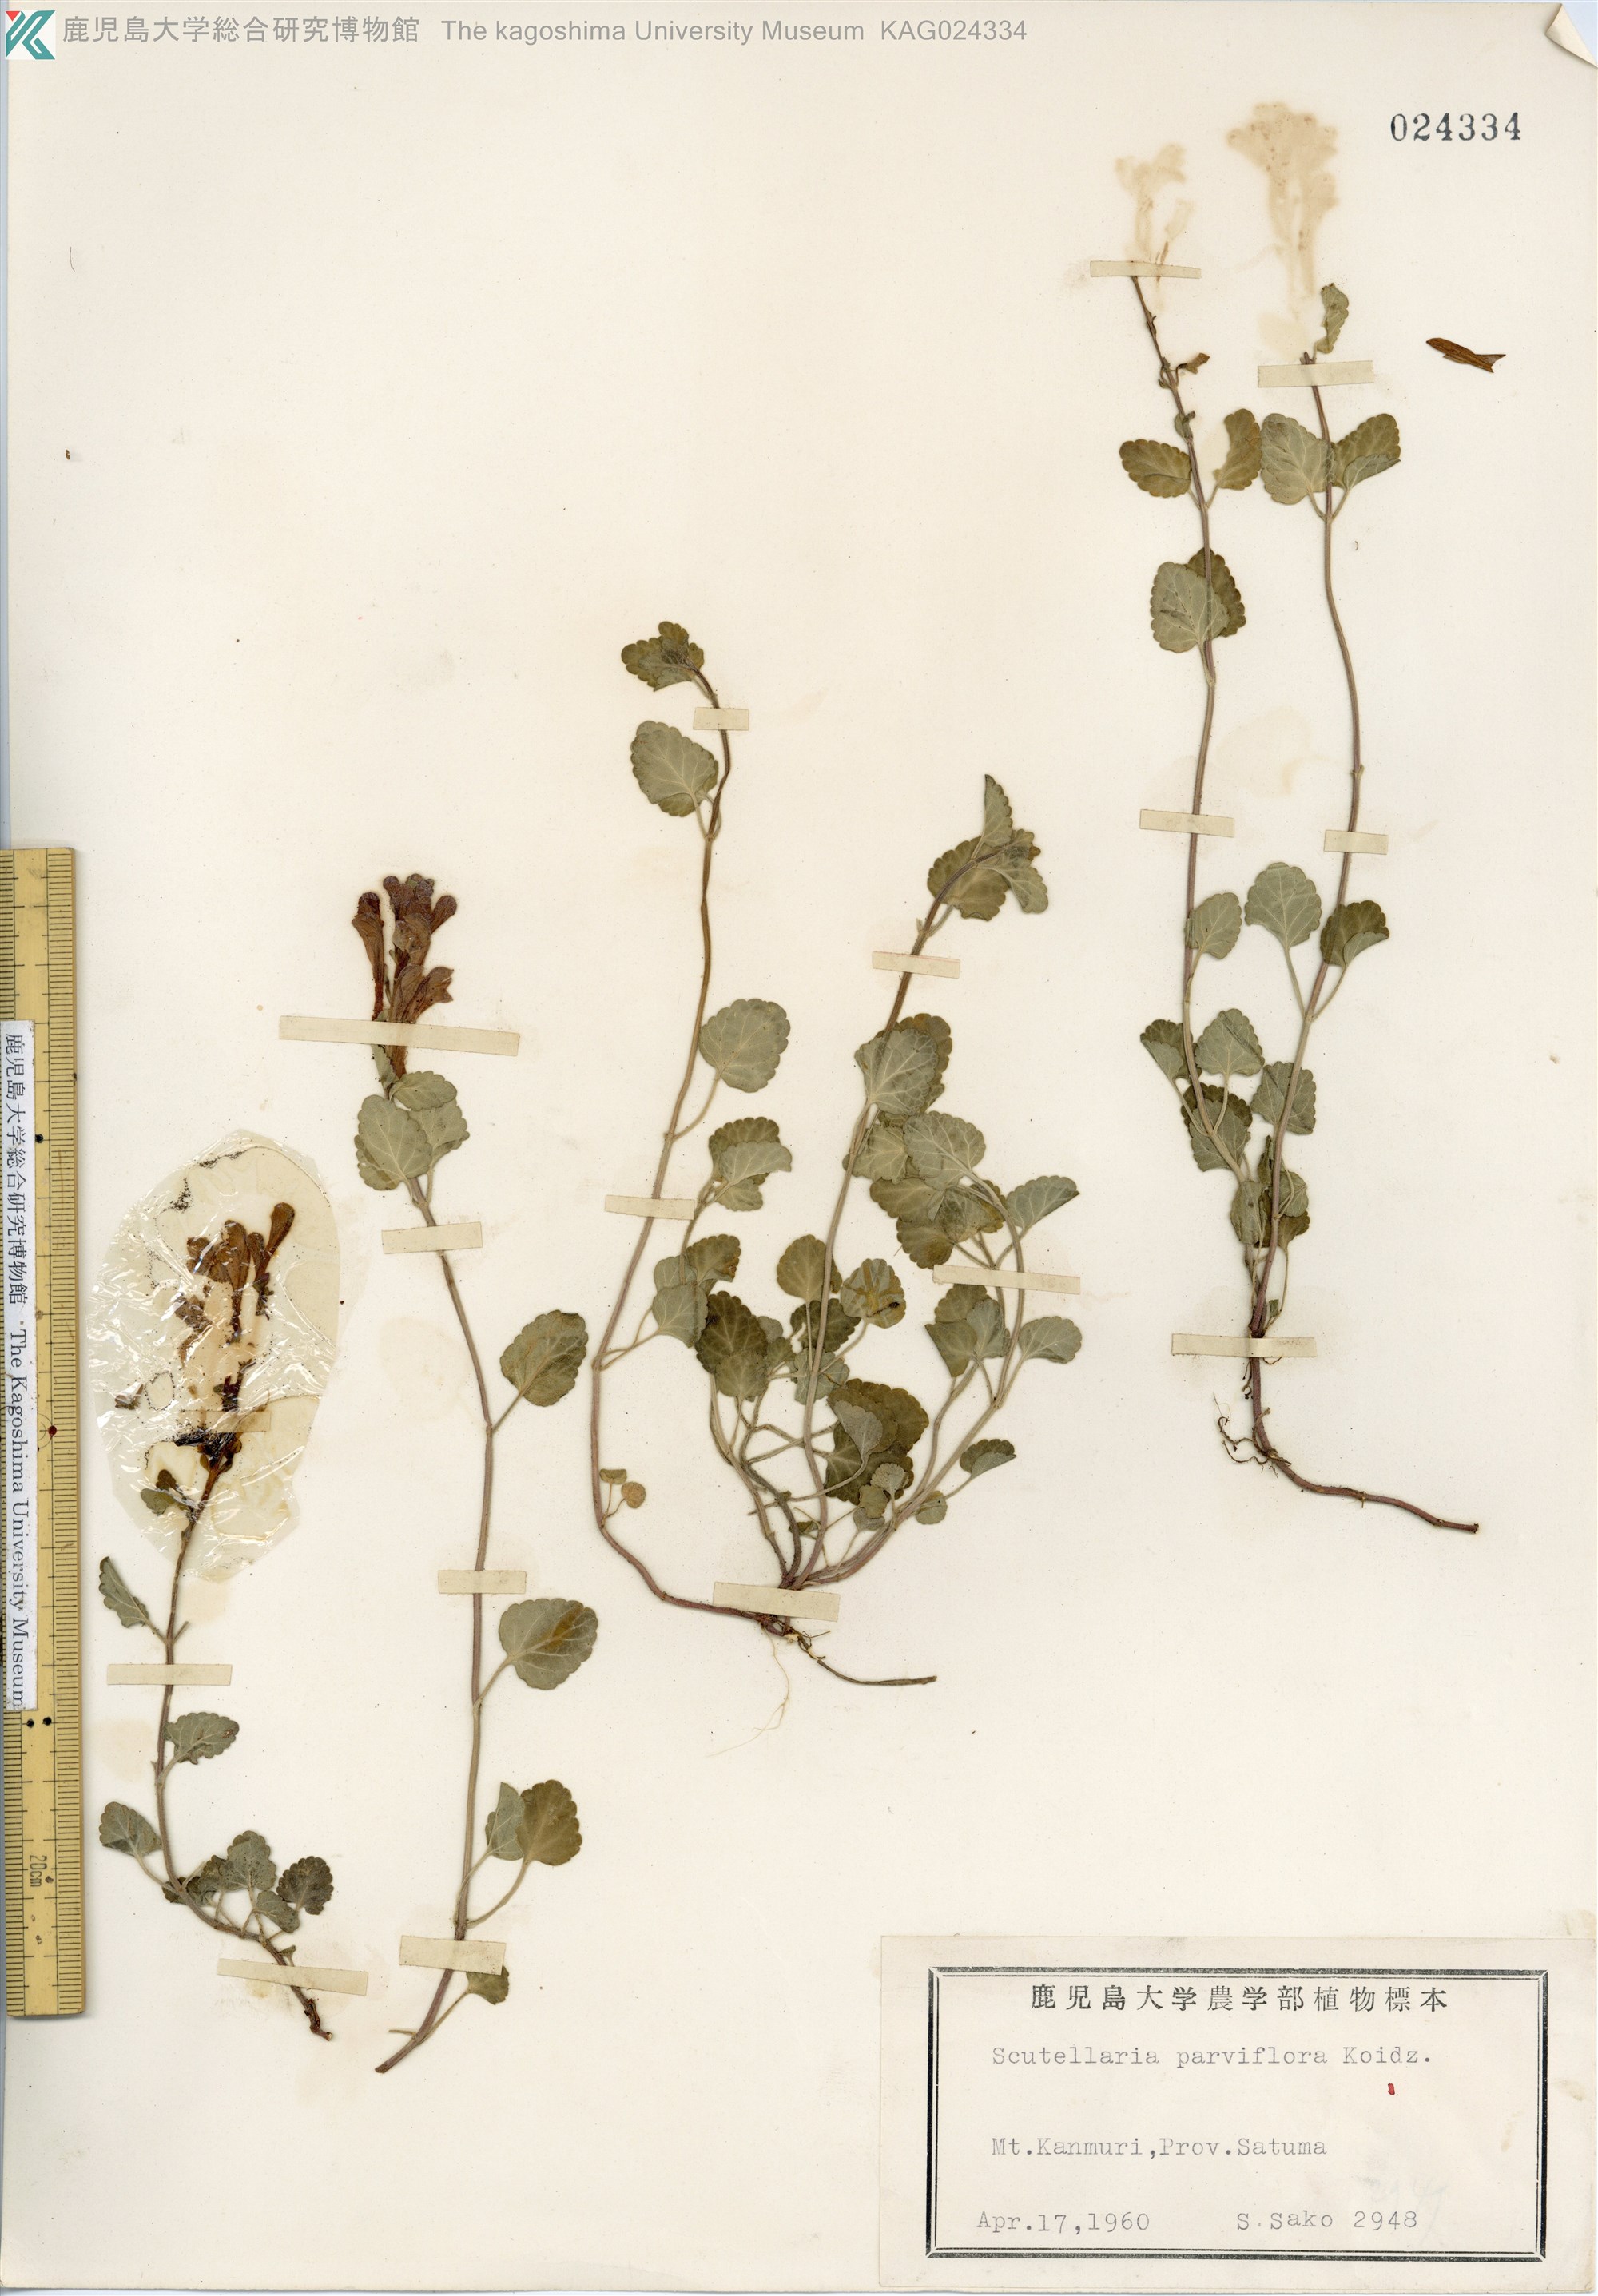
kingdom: Plantae
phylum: Tracheophyta
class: Magnoliopsida
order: Lamiales
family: Lamiaceae
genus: Scutellaria
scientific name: Scutellaria indica
